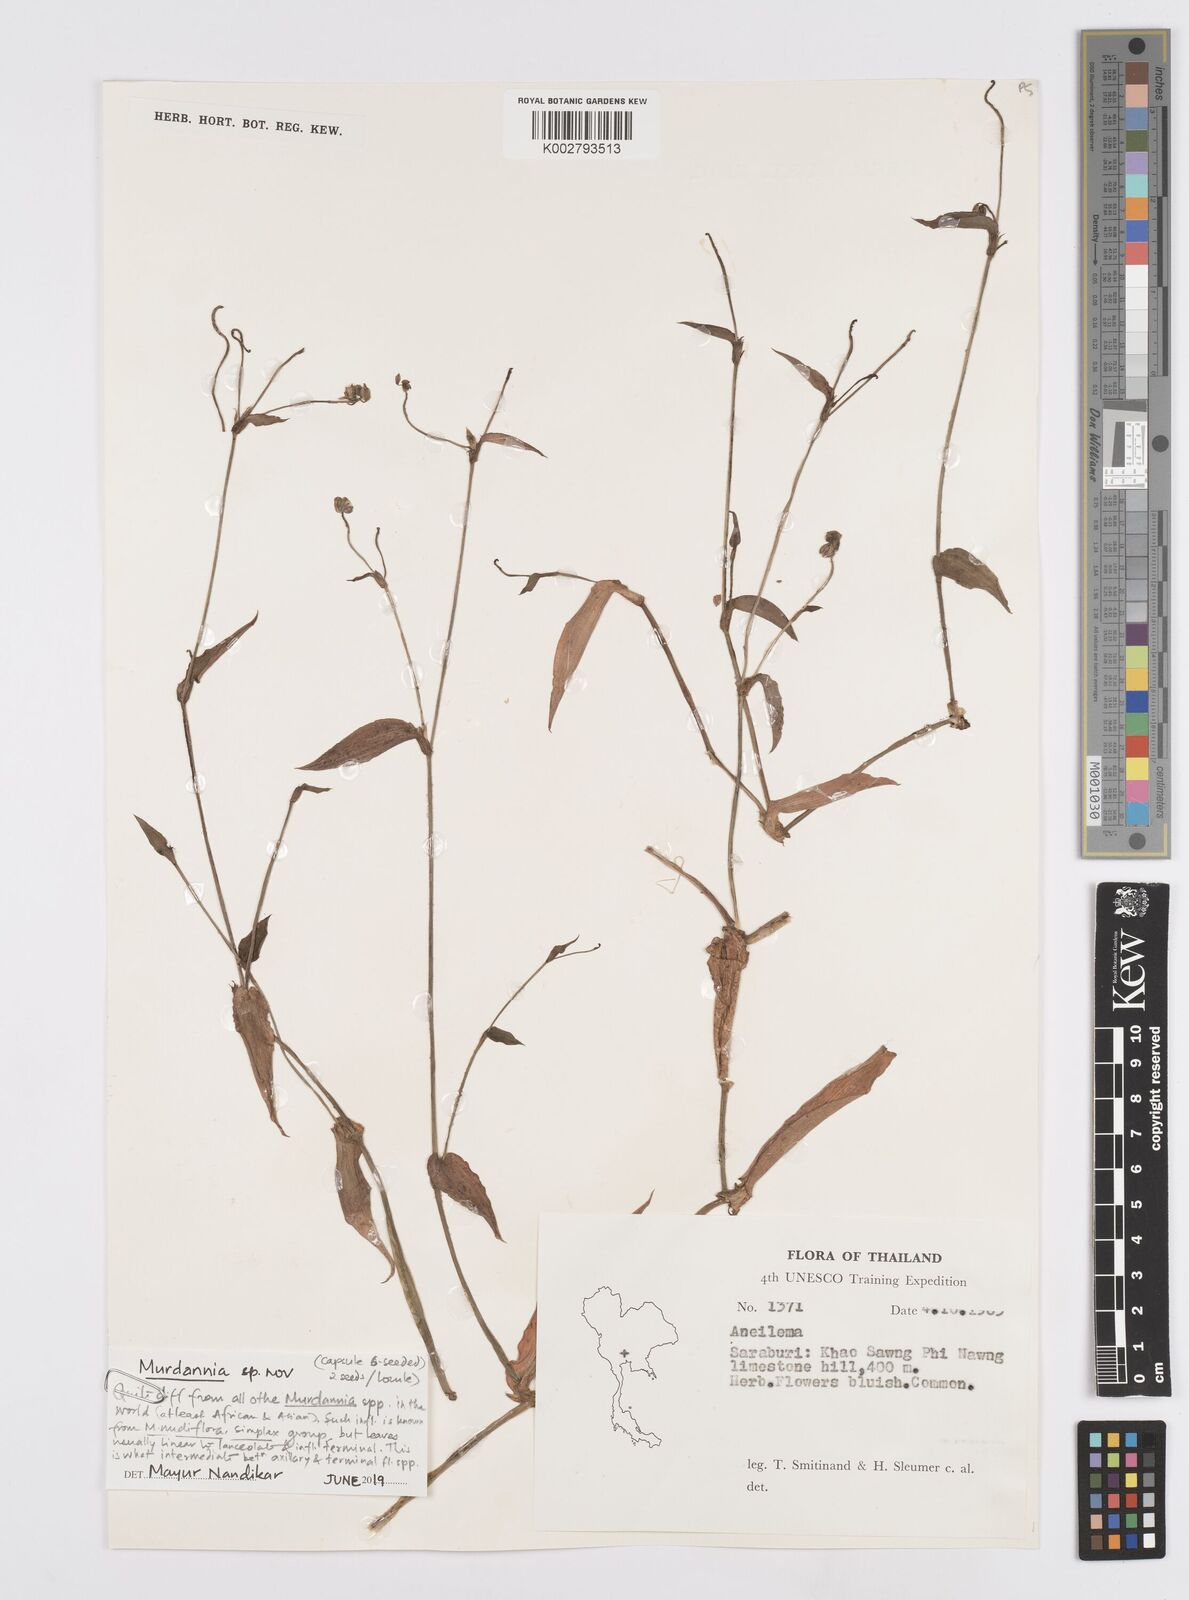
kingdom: Plantae
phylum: Tracheophyta
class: Liliopsida
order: Commelinales
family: Commelinaceae
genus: Murdannia
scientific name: Murdannia
